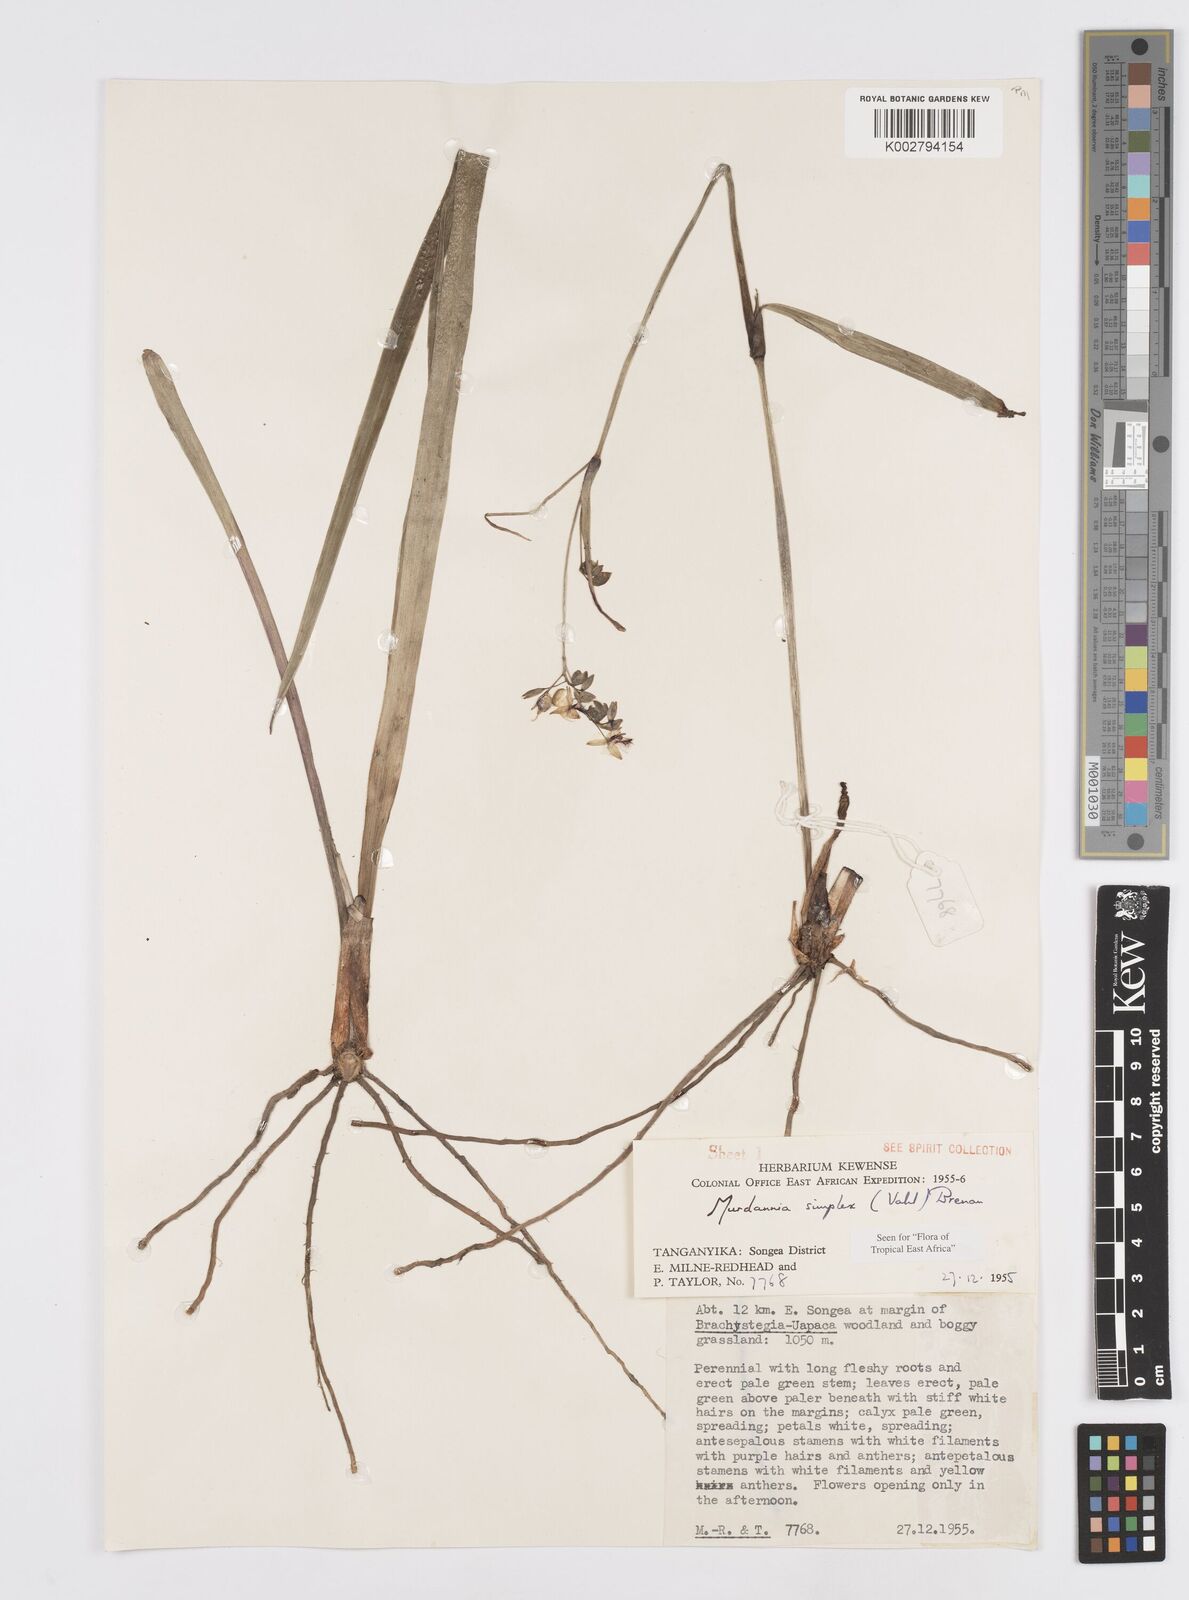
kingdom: Plantae
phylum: Tracheophyta
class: Liliopsida
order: Commelinales
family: Commelinaceae
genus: Murdannia
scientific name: Murdannia simplex
